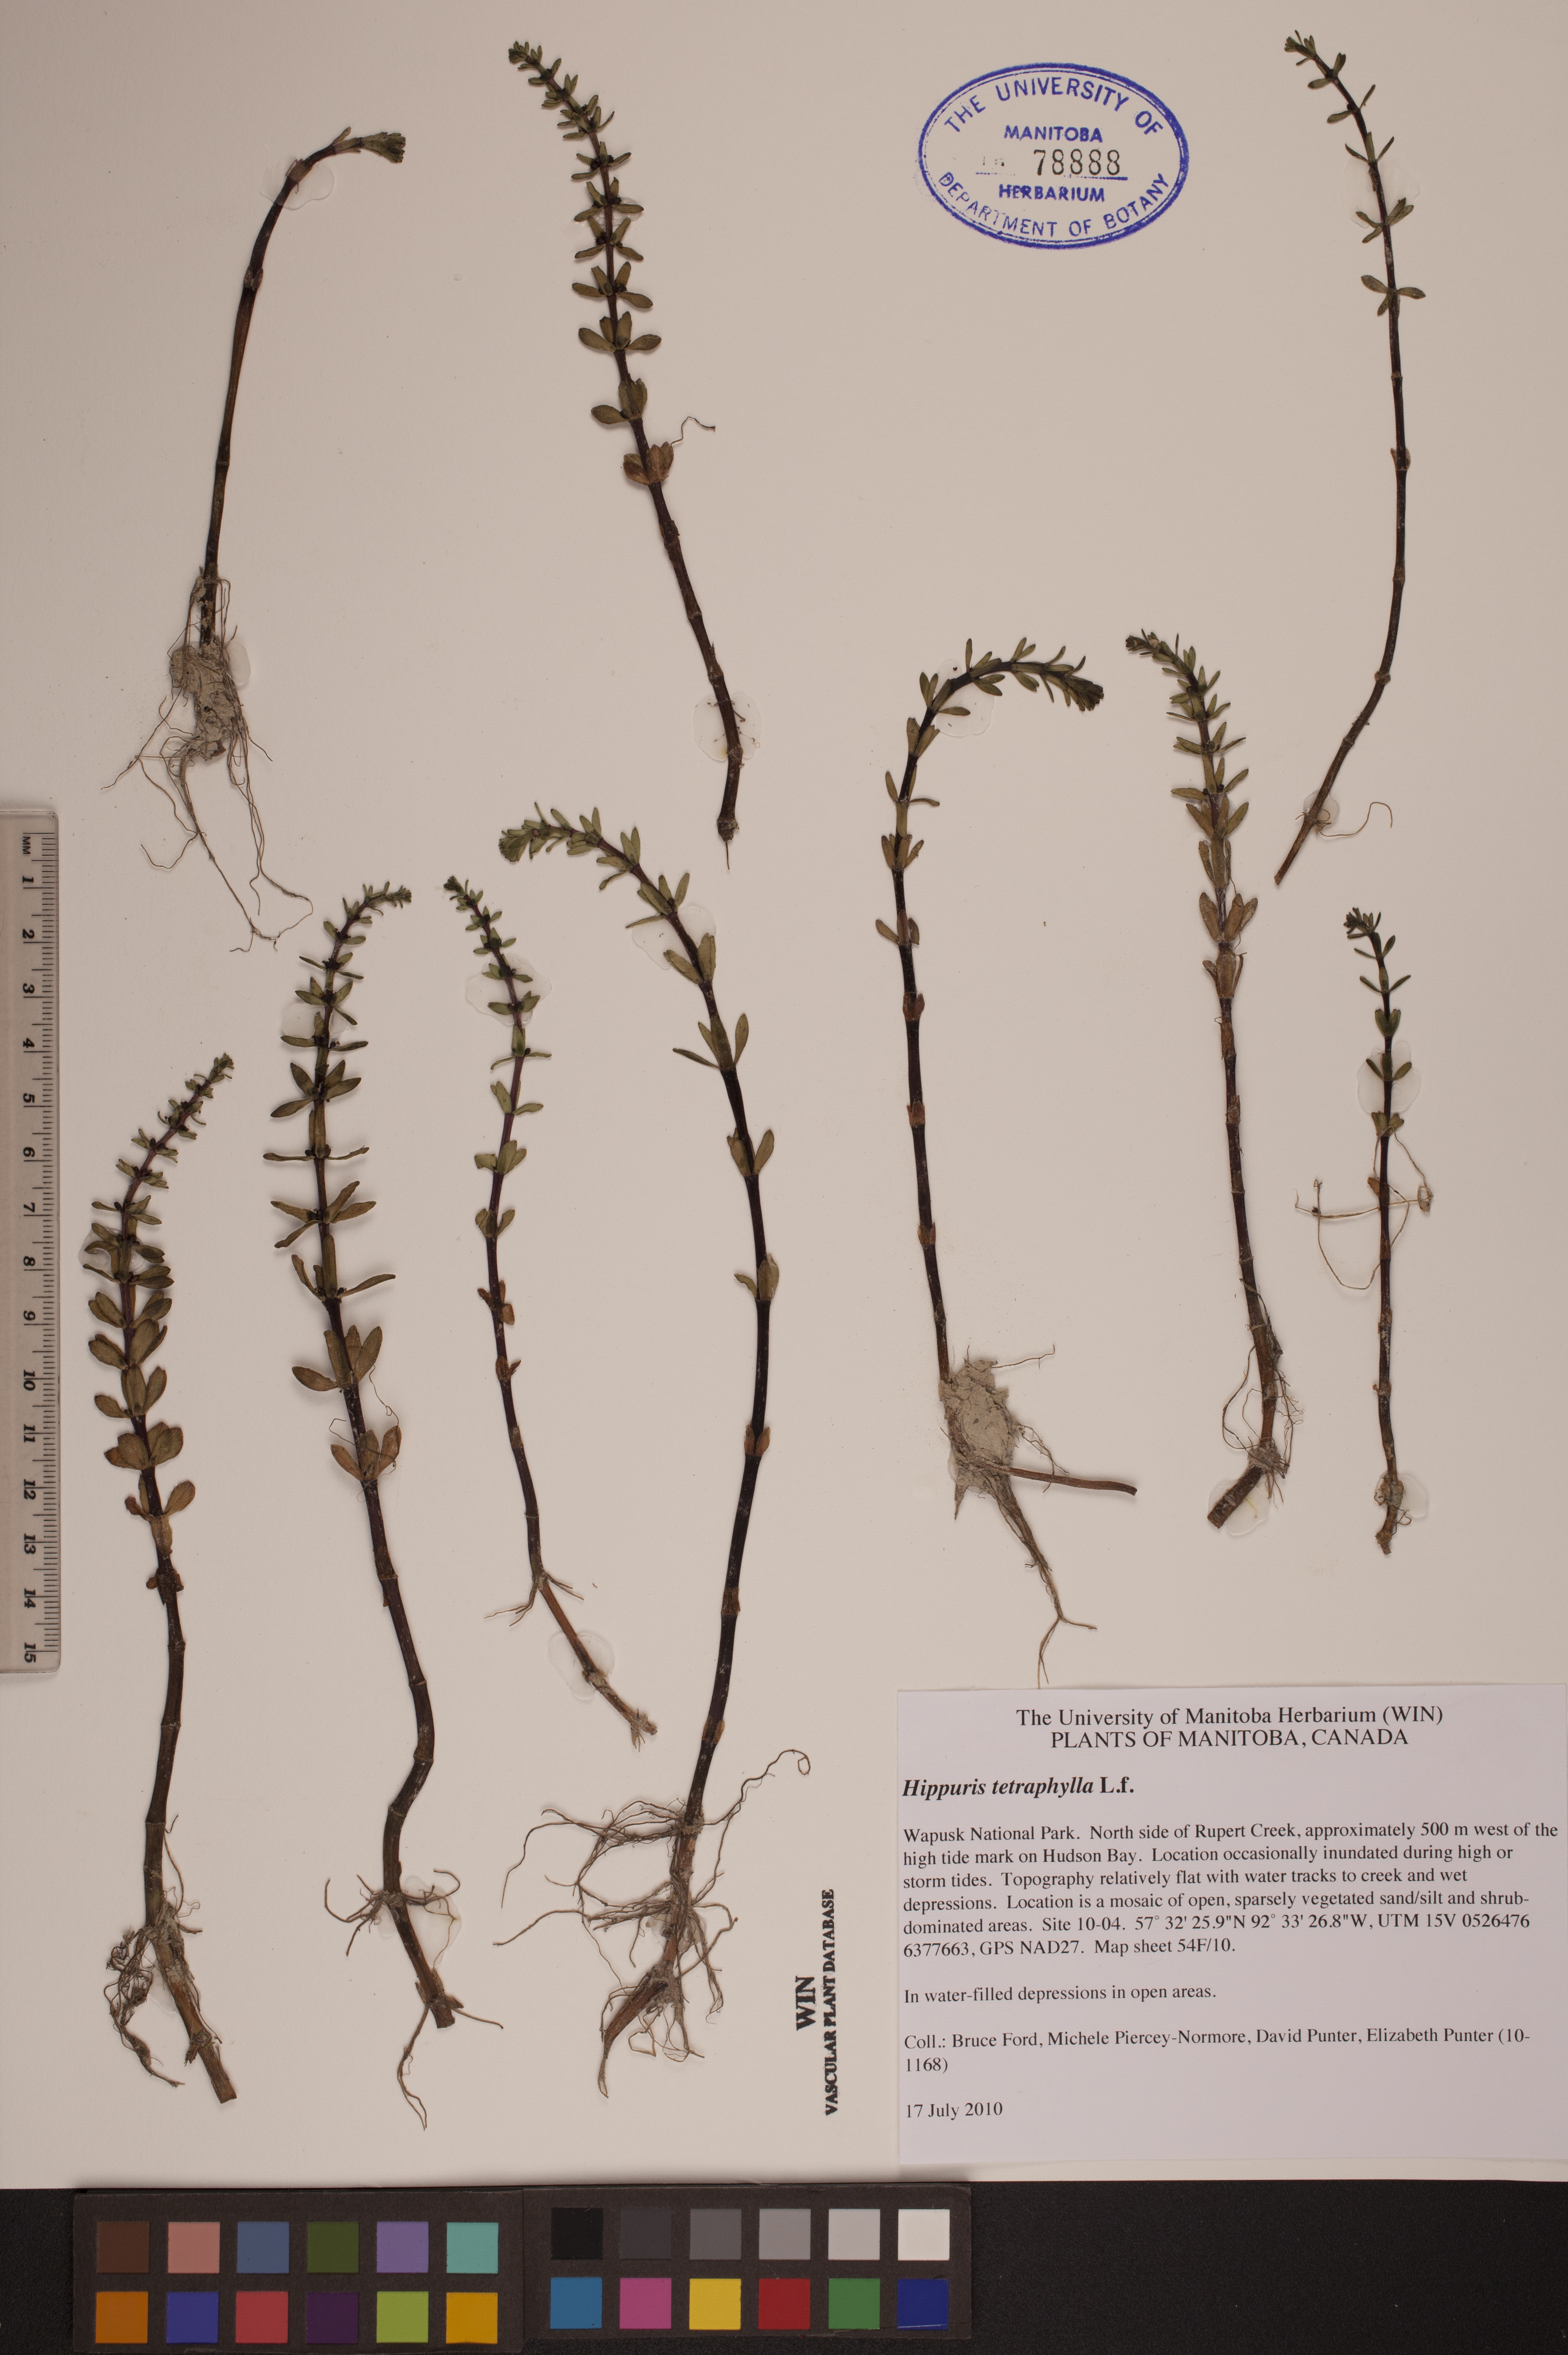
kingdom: Plantae
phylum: Tracheophyta
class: Magnoliopsida
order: Lamiales
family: Plantaginaceae
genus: Hippuris
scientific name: Hippuris tetraphylla
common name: Four-leaved mare's-tail
